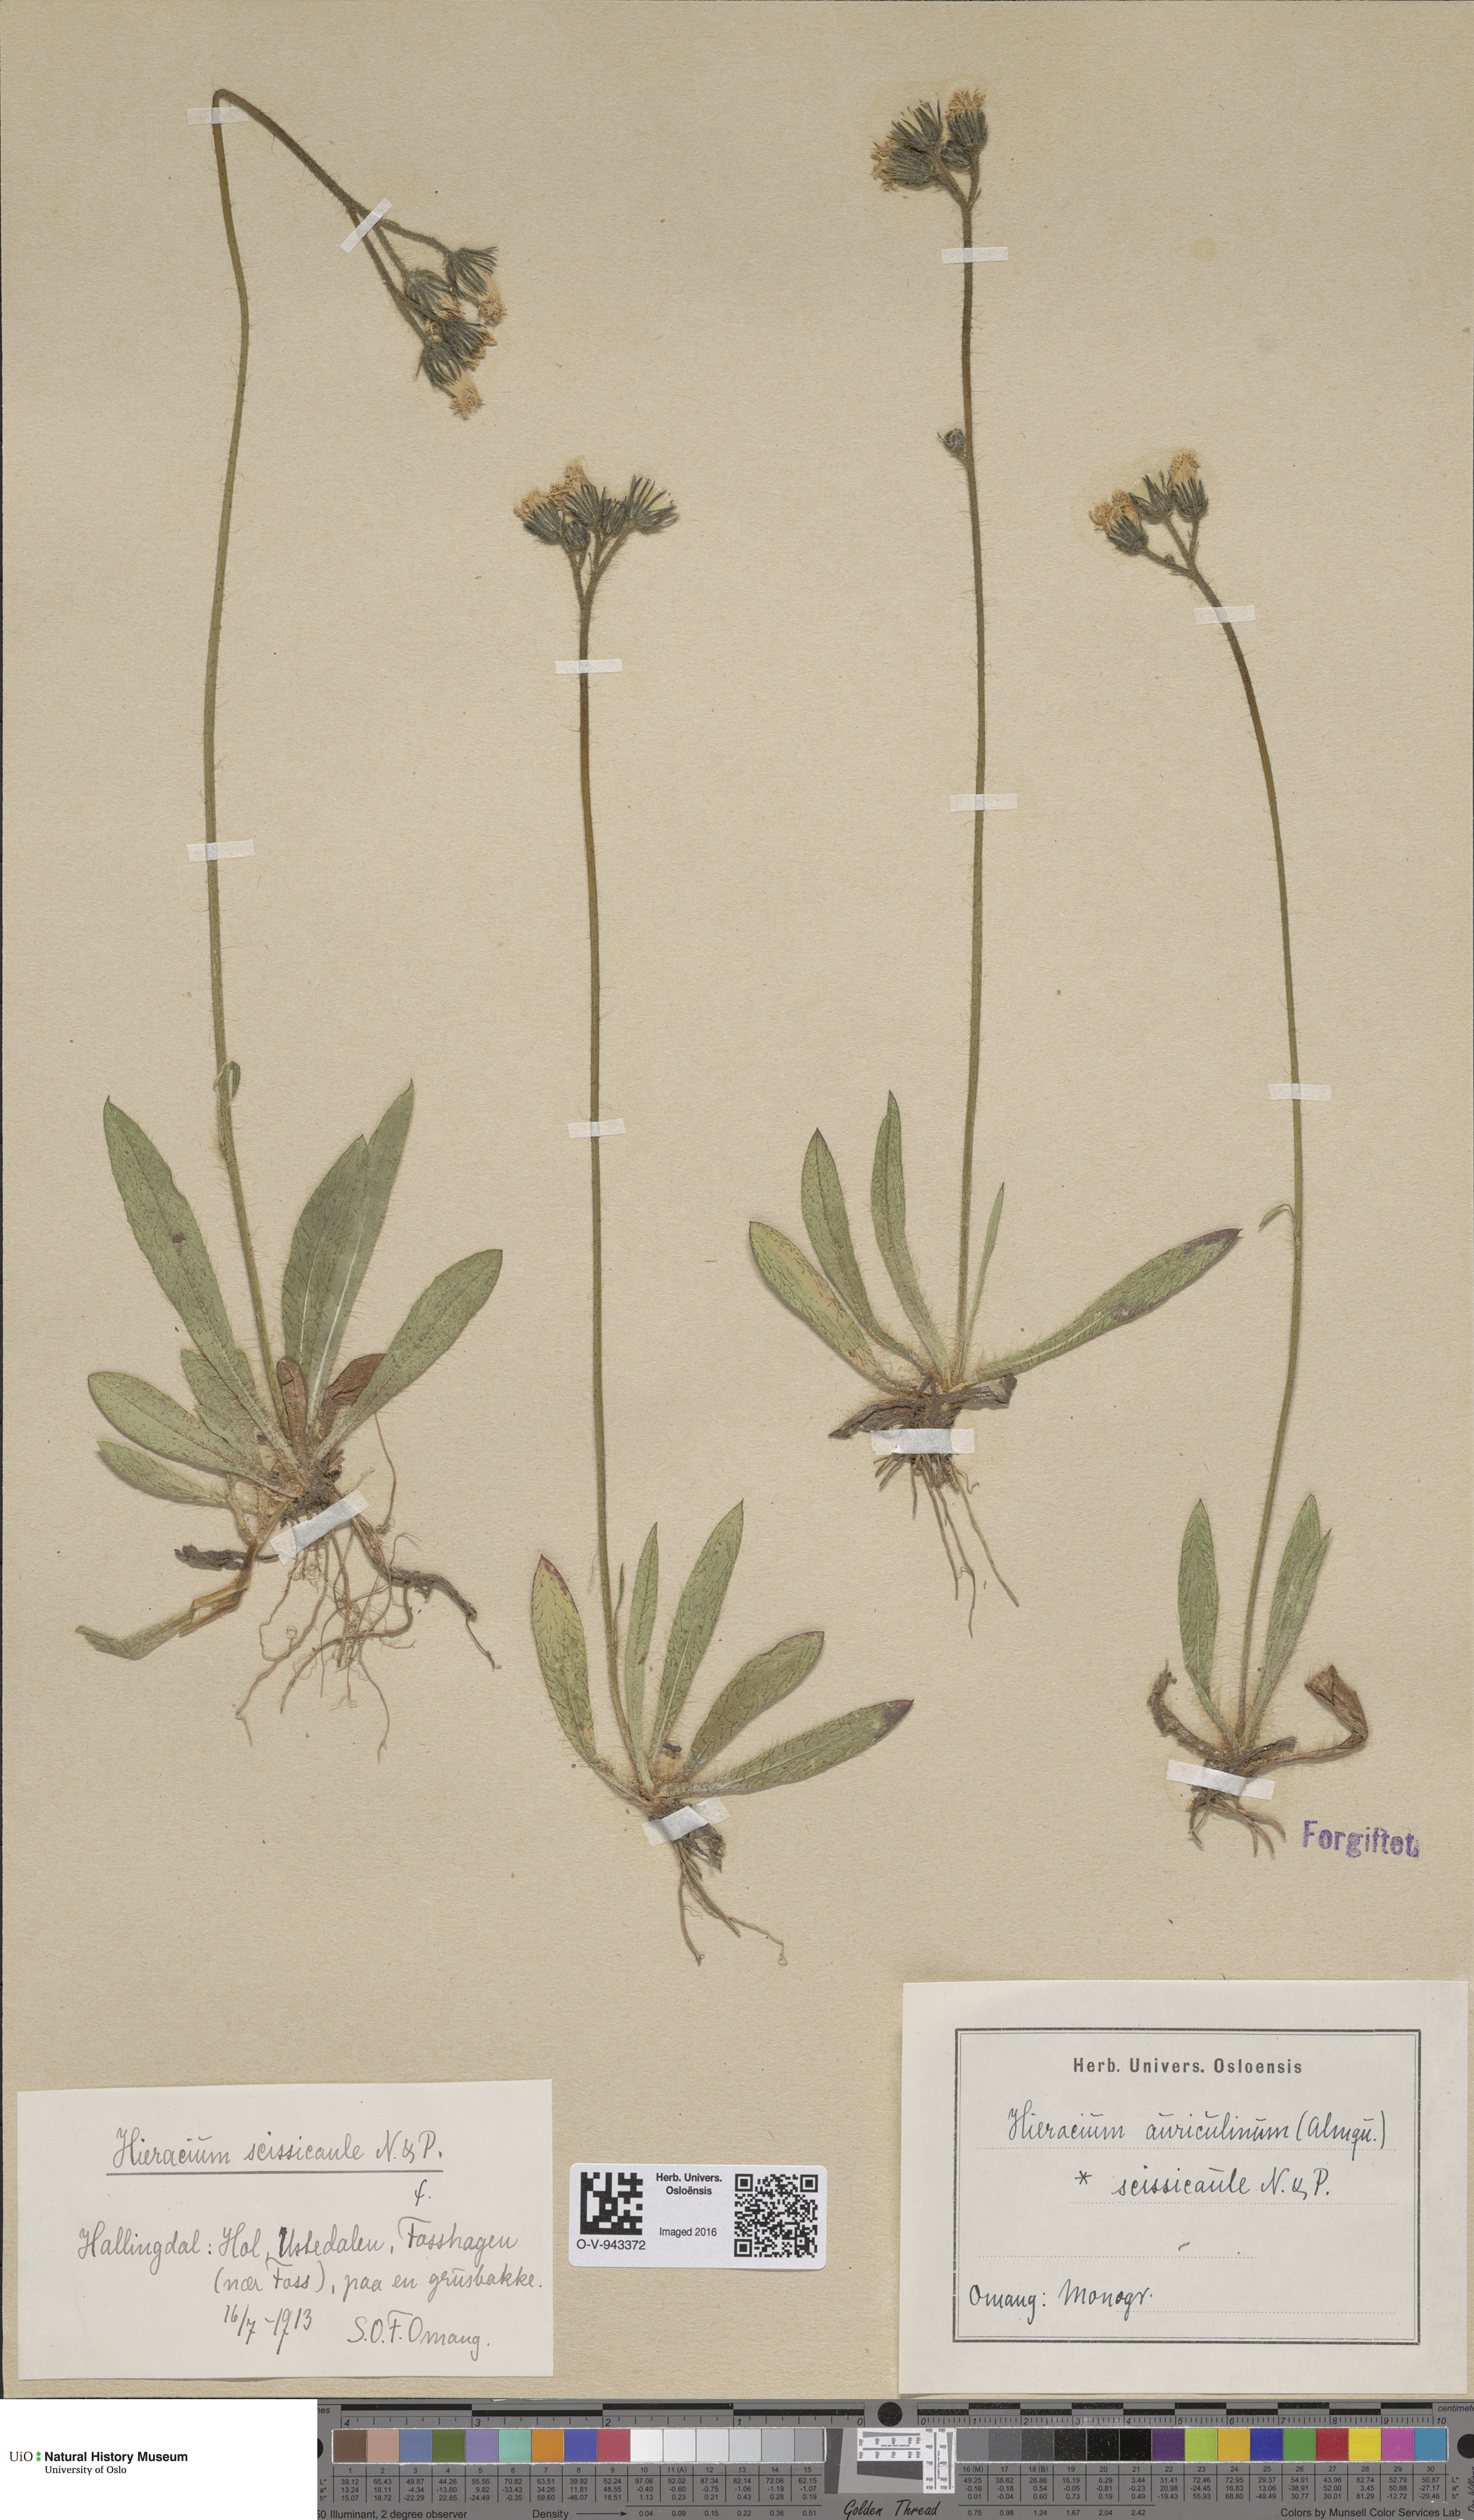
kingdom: Plantae
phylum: Tracheophyta
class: Magnoliopsida
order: Asterales
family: Asteraceae
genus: Pilosella
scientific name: Pilosella dubia
